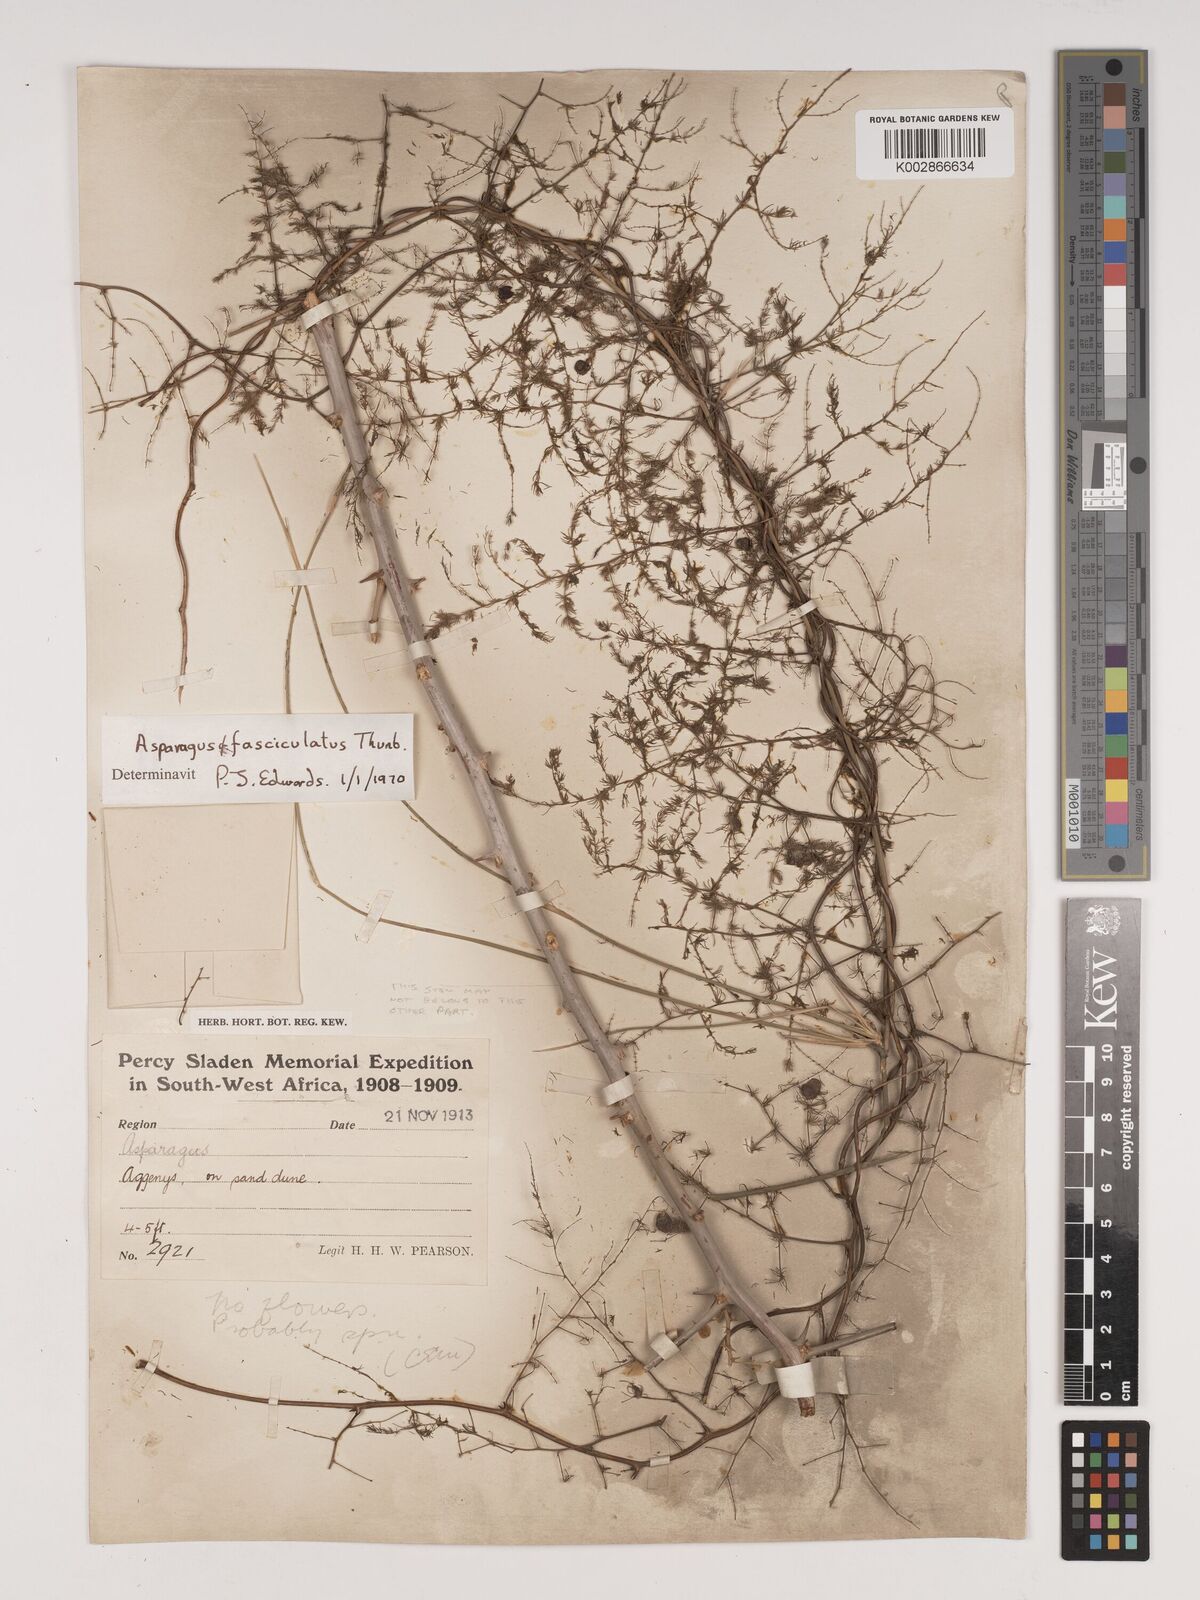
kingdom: Plantae
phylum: Tracheophyta
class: Liliopsida
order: Asparagales
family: Asparagaceae
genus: Asparagus
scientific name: Asparagus fasciculatus
